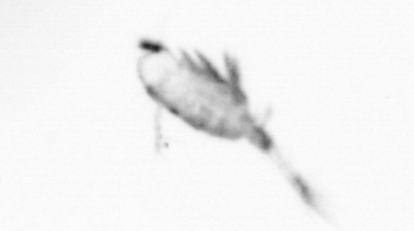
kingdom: Animalia
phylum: Arthropoda
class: Copepoda
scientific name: Copepoda
